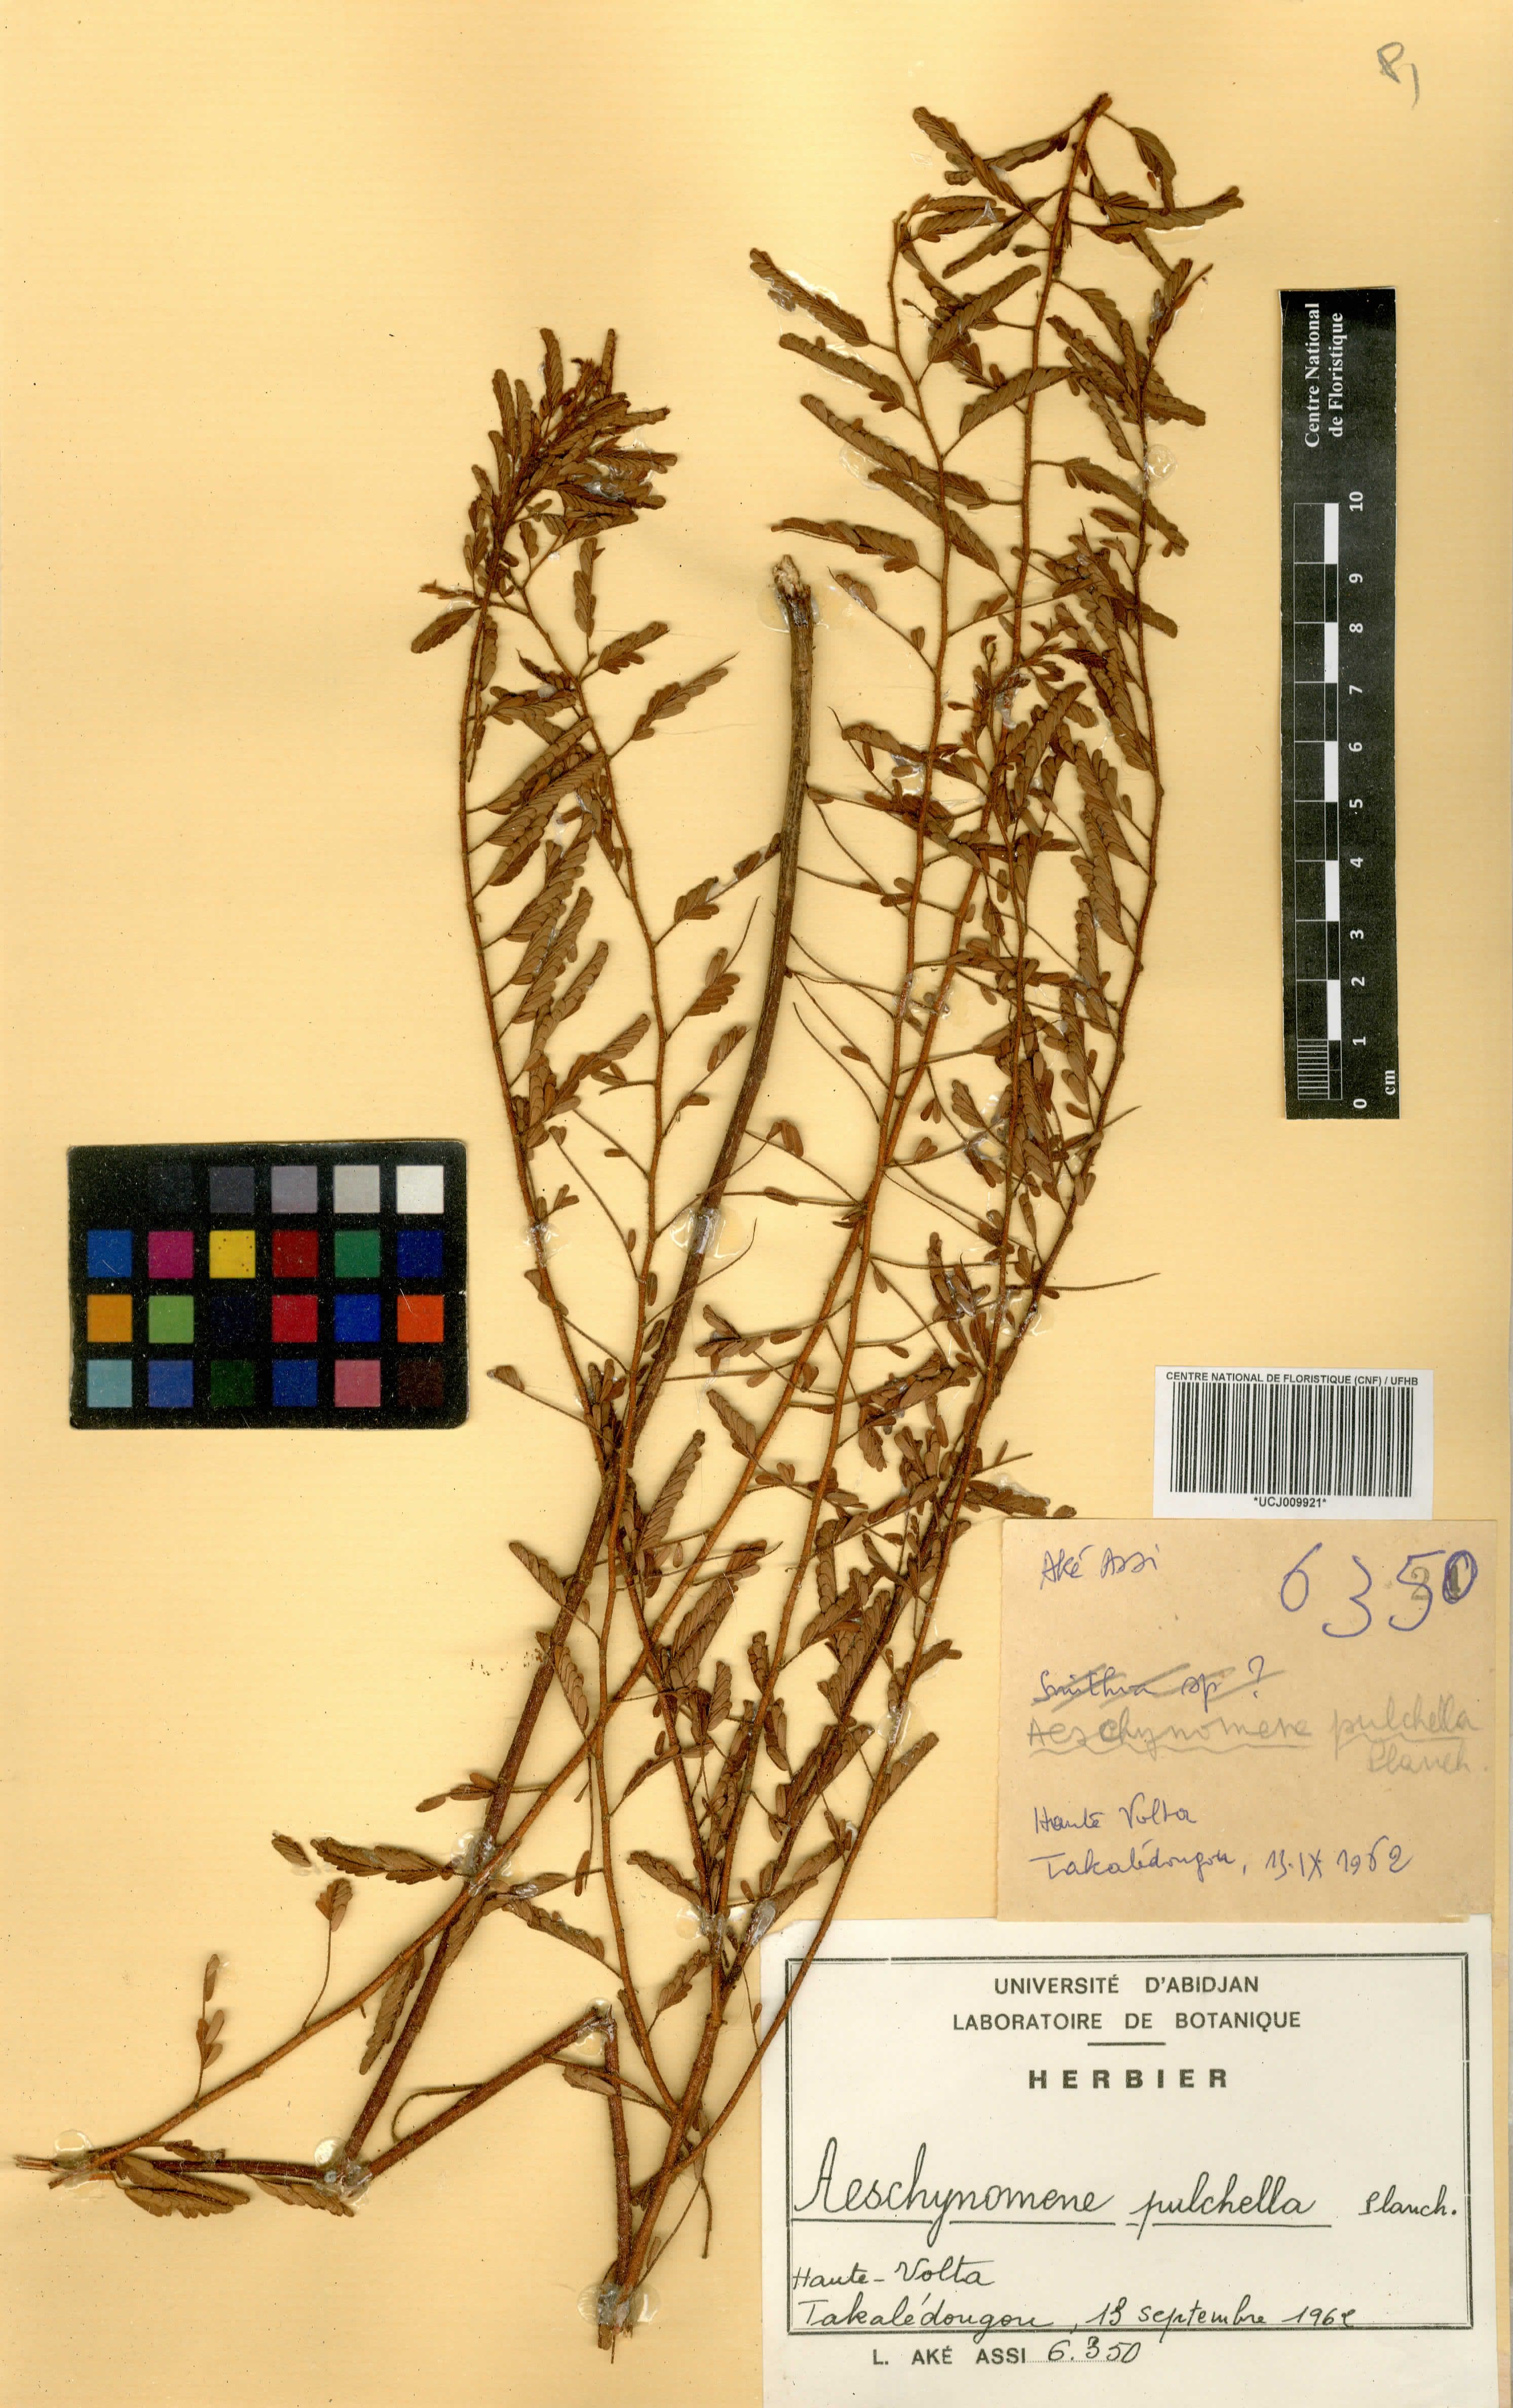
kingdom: Plantae
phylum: Tracheophyta
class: Magnoliopsida
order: Fabales
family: Fabaceae
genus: Aeschynomene
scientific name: Aeschynomene pulchella
